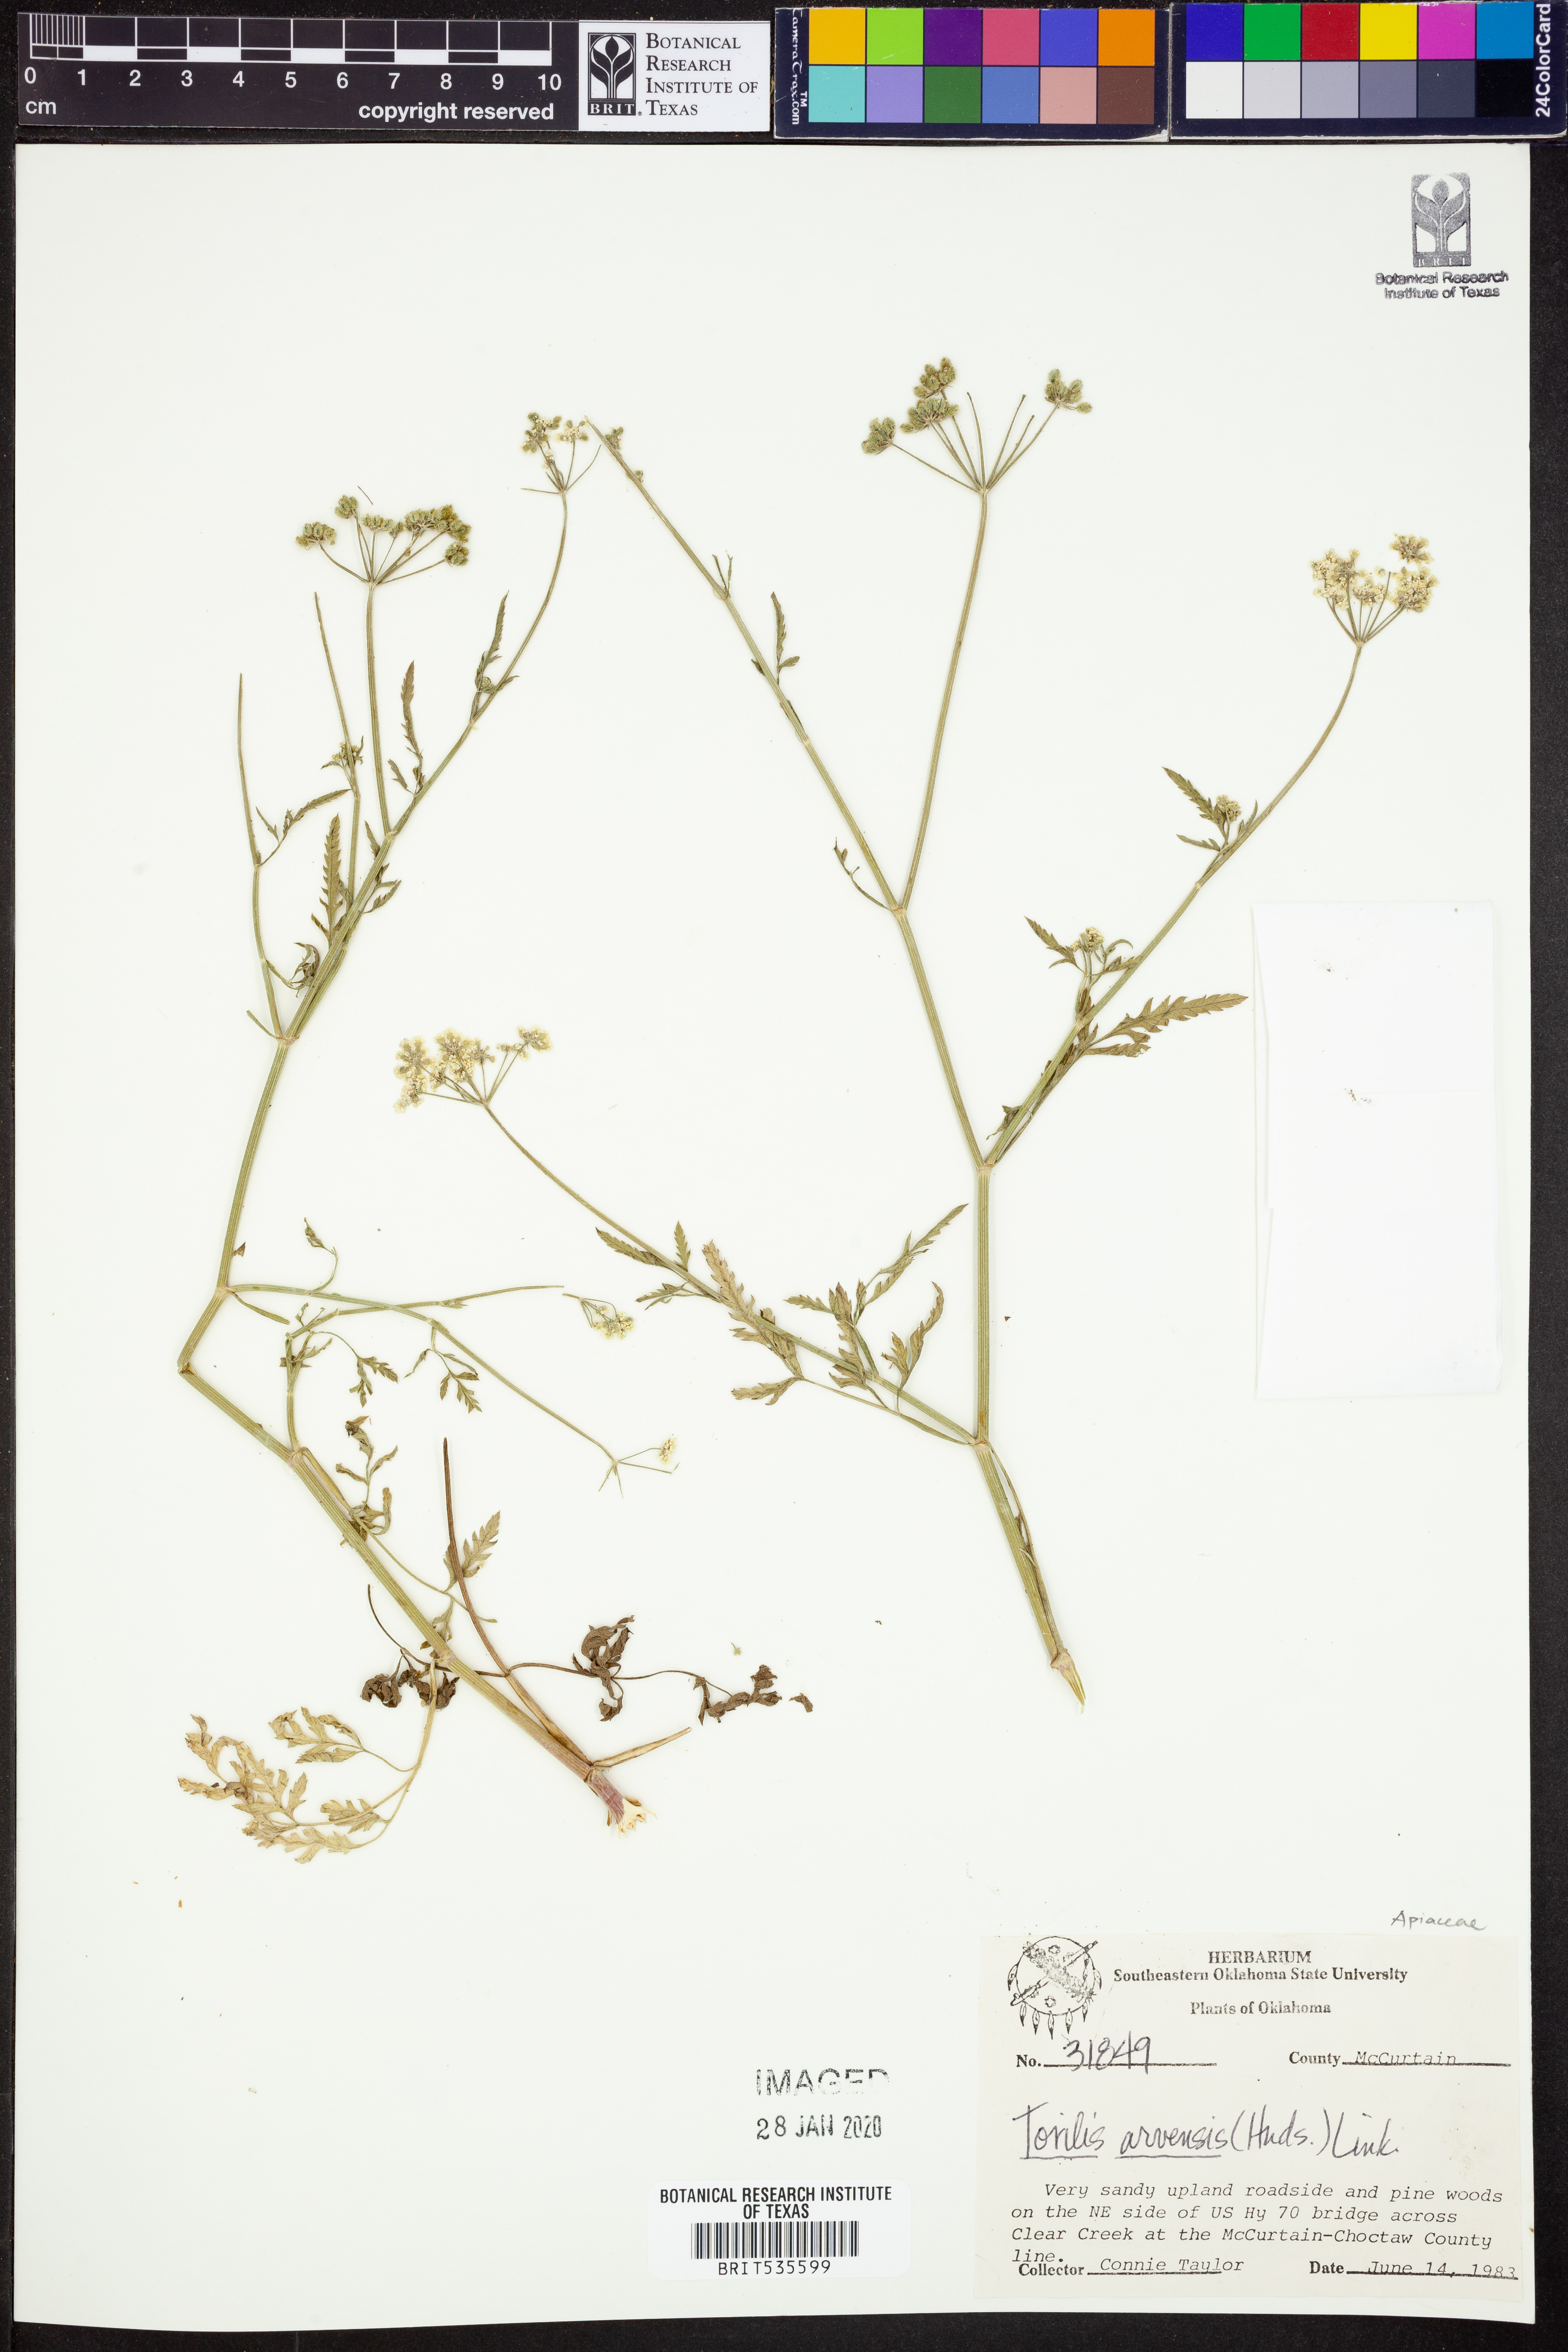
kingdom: Plantae
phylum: Tracheophyta
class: Magnoliopsida
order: Apiales
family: Apiaceae
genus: Torilis
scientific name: Torilis arvensis
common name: Spreading hedge-parsley
